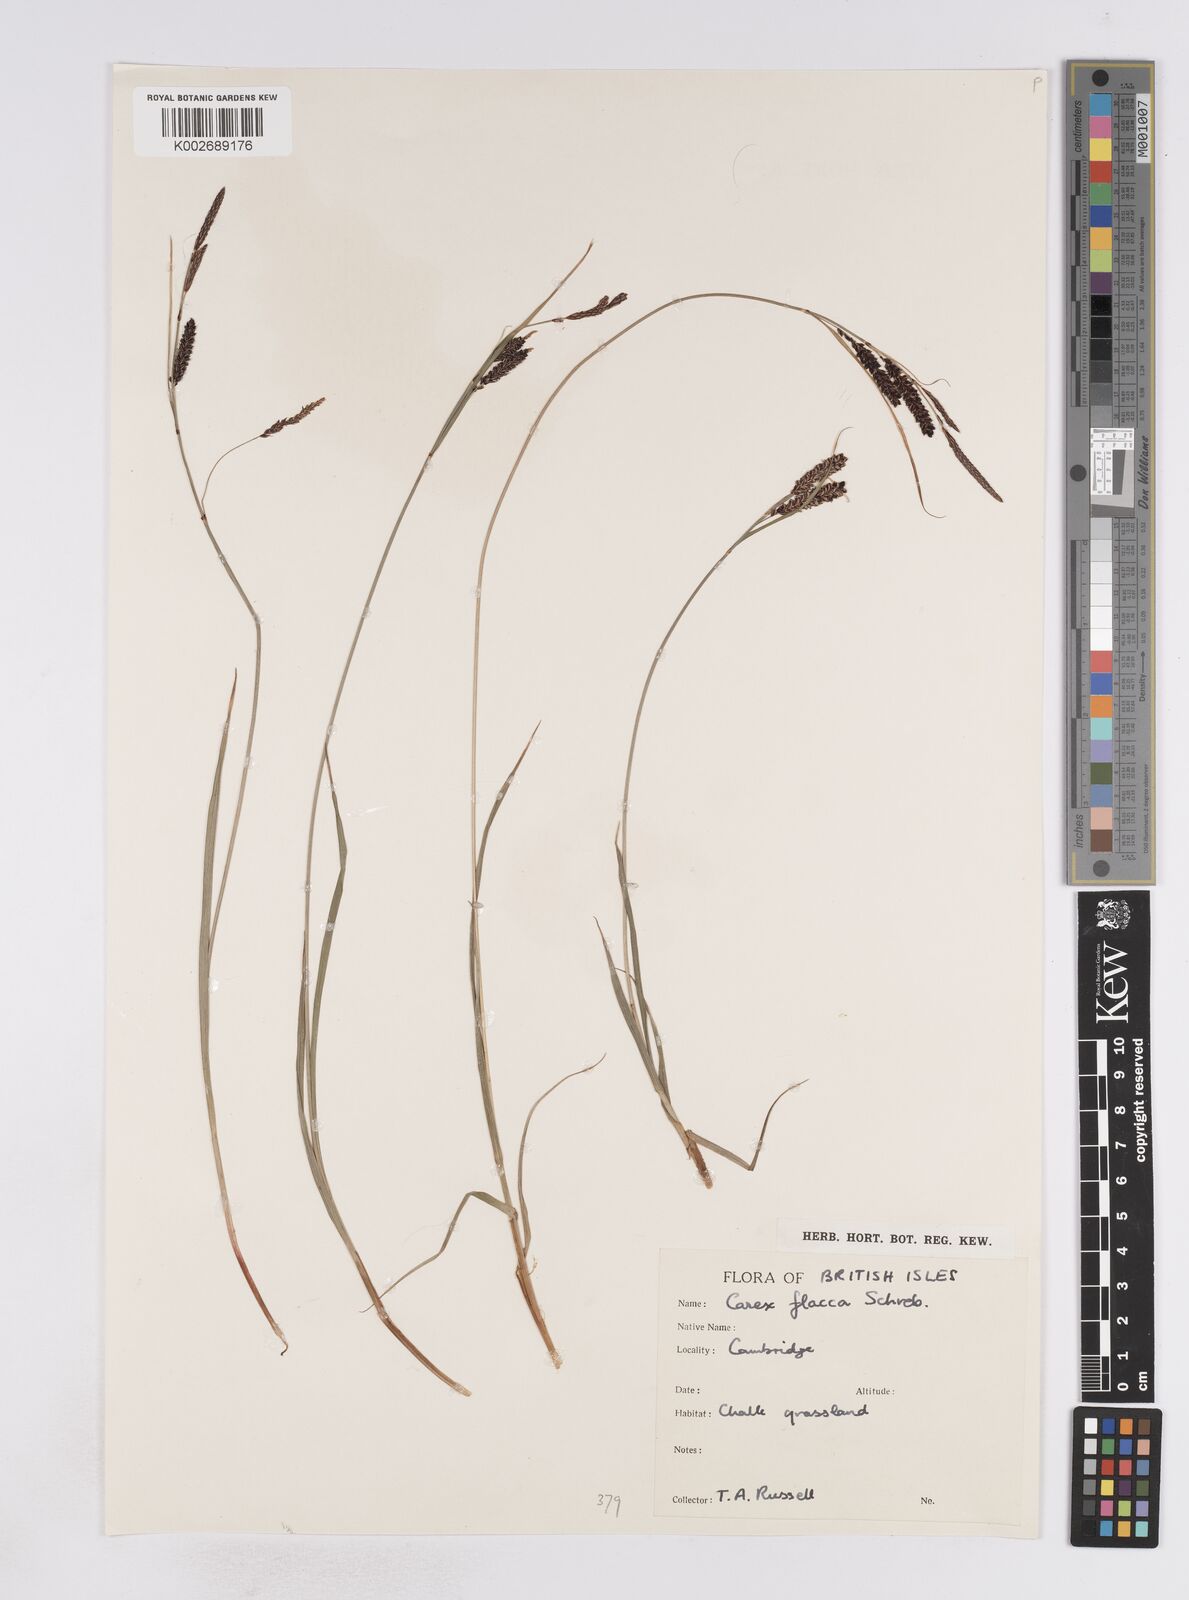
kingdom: Plantae
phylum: Tracheophyta
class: Liliopsida
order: Poales
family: Cyperaceae
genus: Carex
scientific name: Carex flacca
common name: Glaucous sedge
